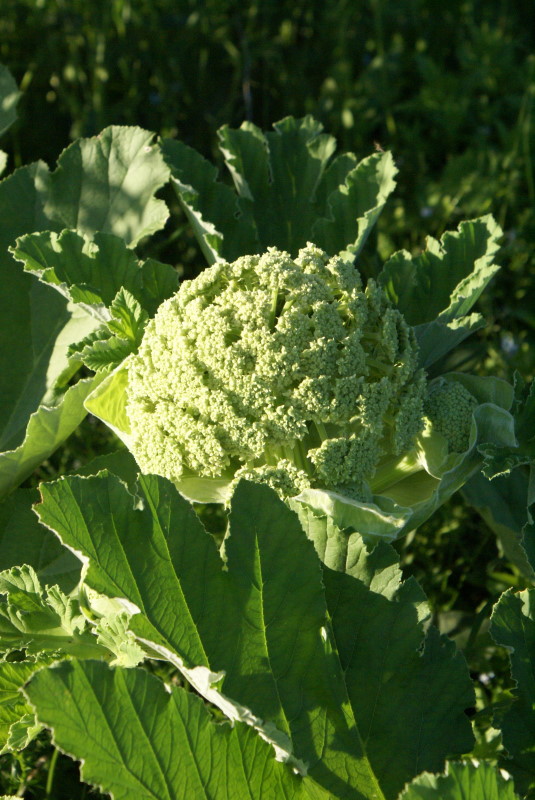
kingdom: Plantae
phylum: Tracheophyta
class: Magnoliopsida
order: Apiales
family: Apiaceae
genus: Heracleum
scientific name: Heracleum villosum
